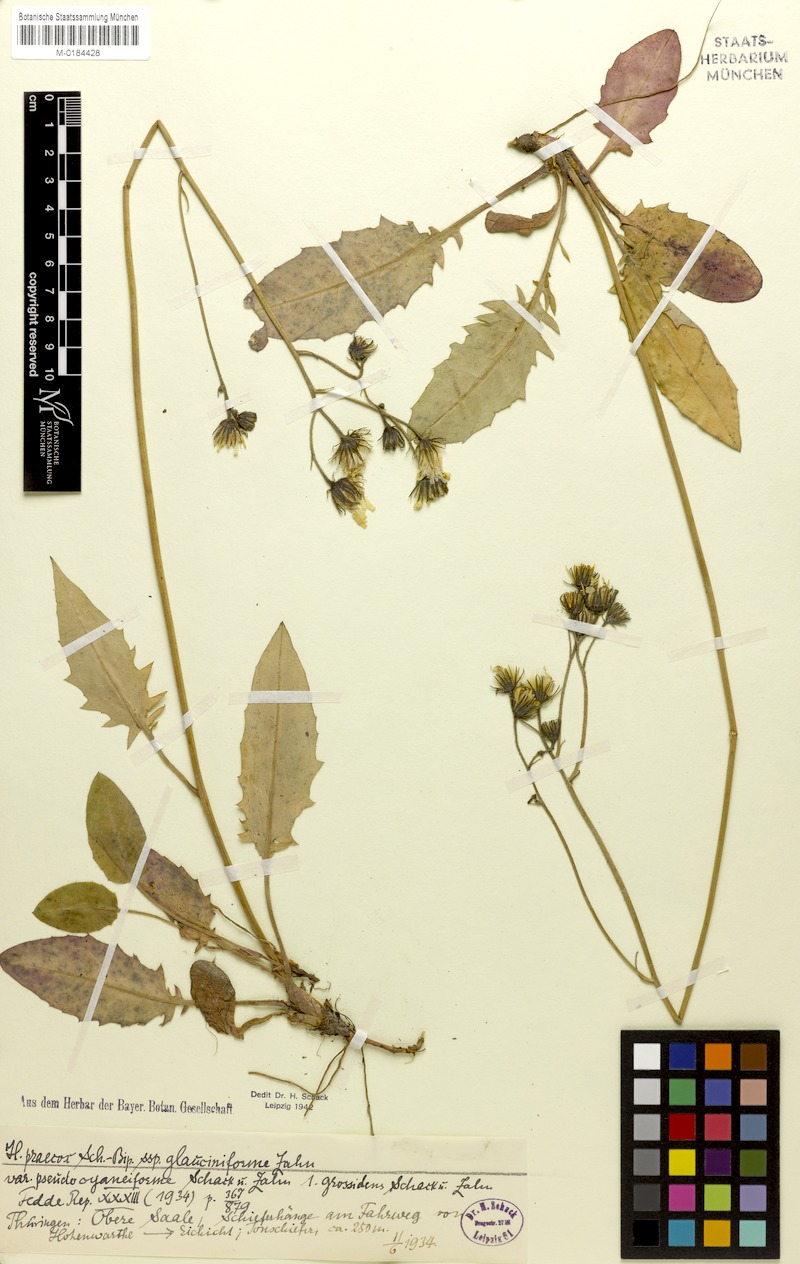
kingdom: Plantae
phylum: Tracheophyta
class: Magnoliopsida
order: Asterales
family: Asteraceae
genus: Hieracium
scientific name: Hieracium glaucinum
